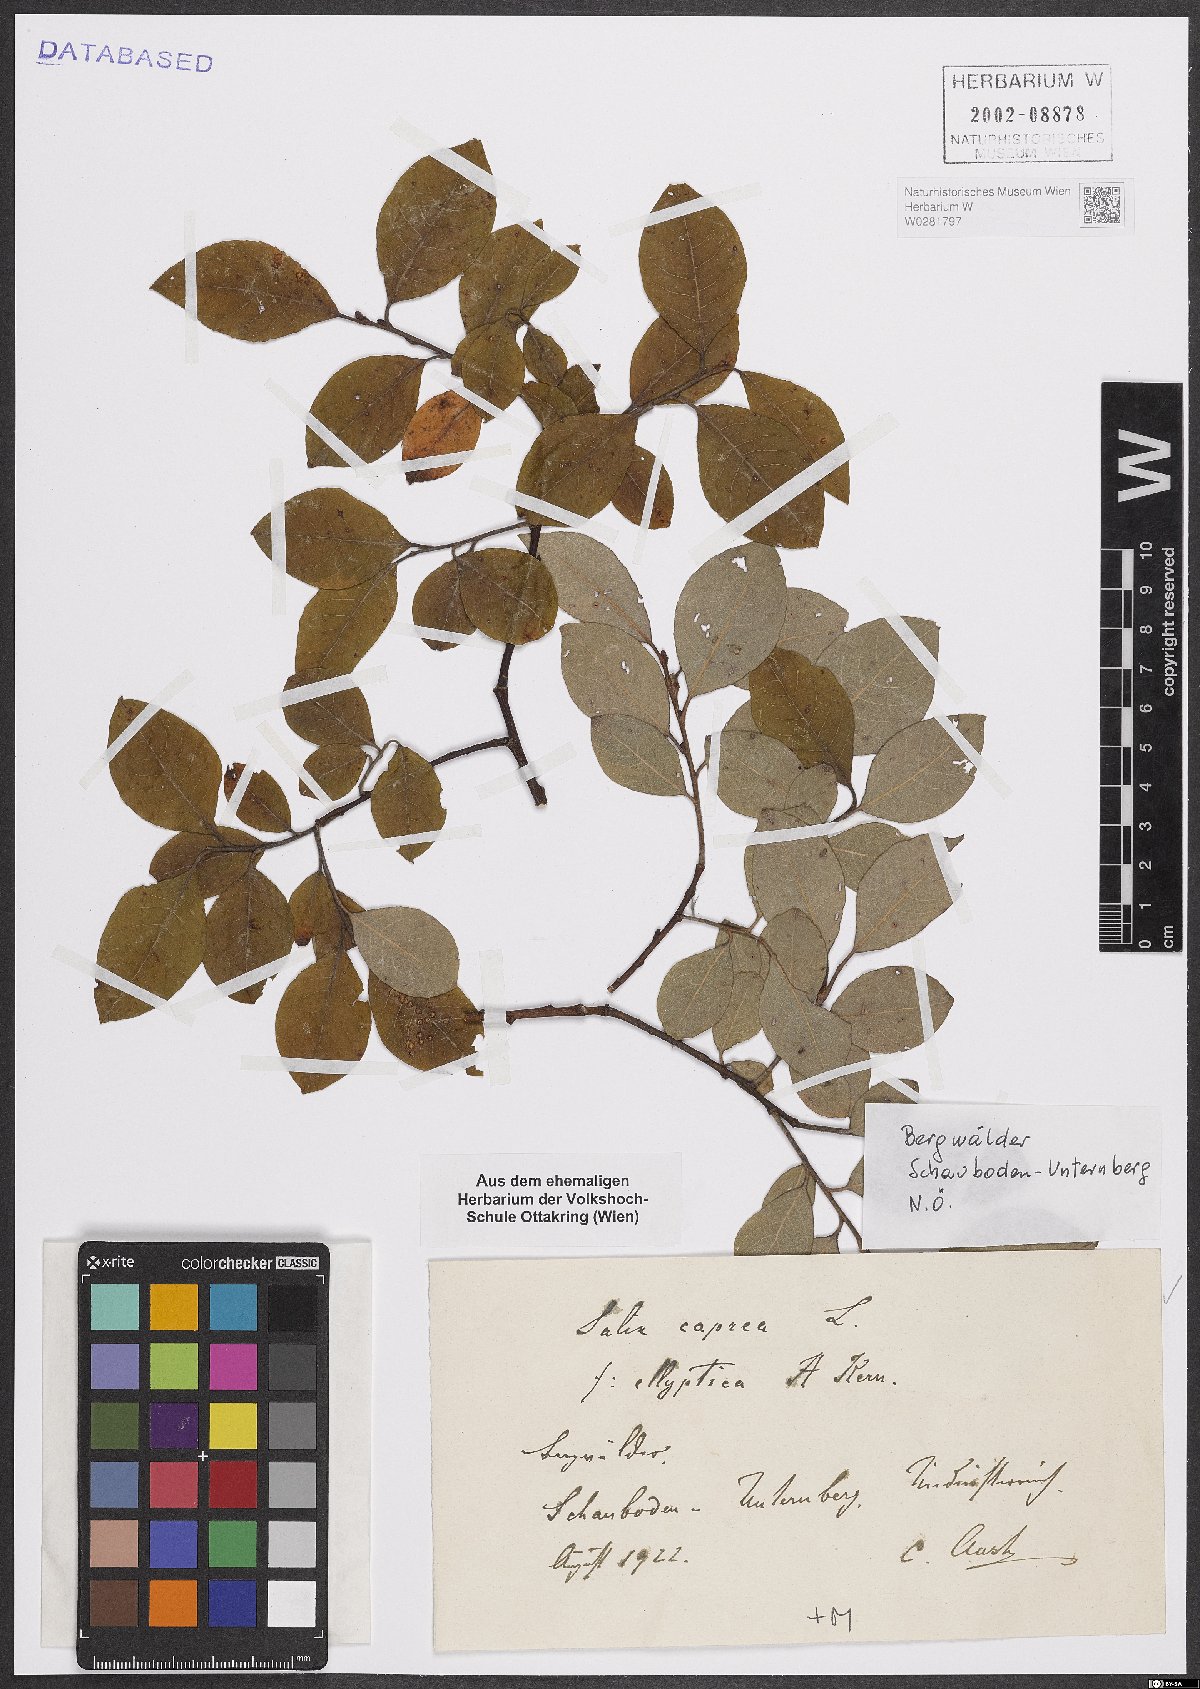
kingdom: Plantae
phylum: Tracheophyta
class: Magnoliopsida
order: Malpighiales
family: Salicaceae
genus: Salix
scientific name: Salix caprea
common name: Goat willow
